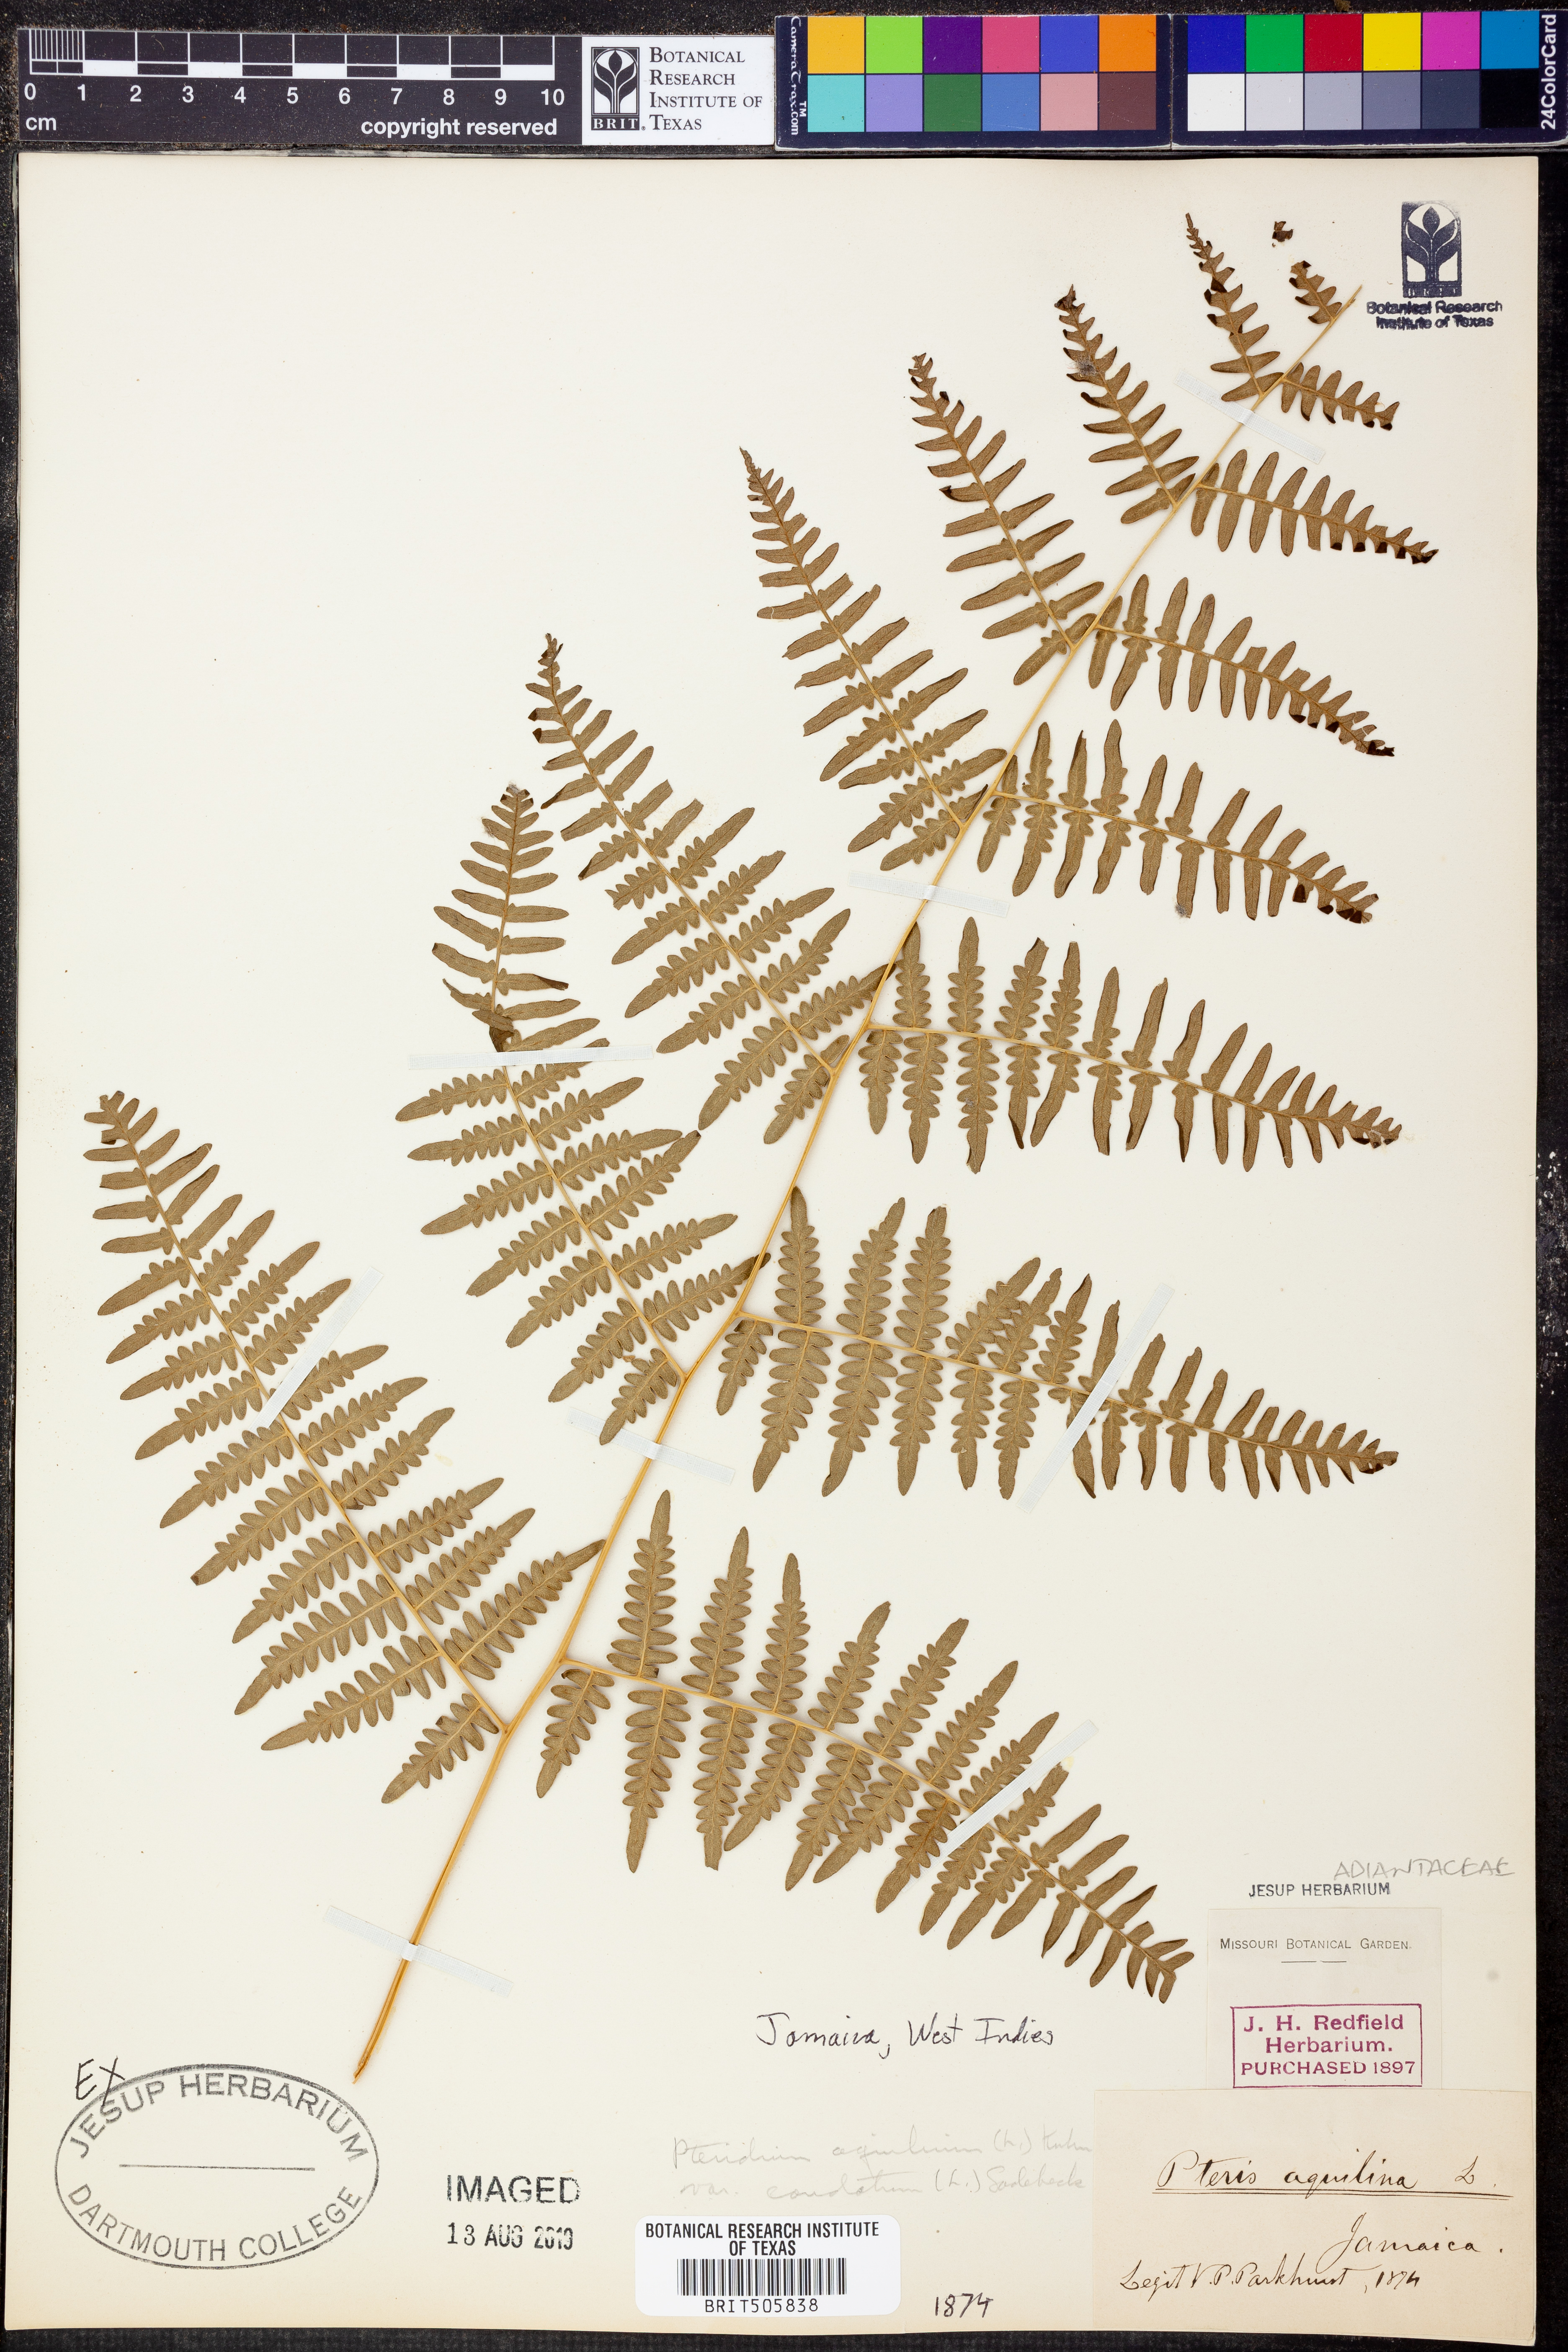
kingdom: Plantae
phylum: Tracheophyta
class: Polypodiopsida
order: Polypodiales
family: Dennstaedtiaceae
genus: Pteridium
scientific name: Pteridium caudatum
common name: Southern bracken fern
